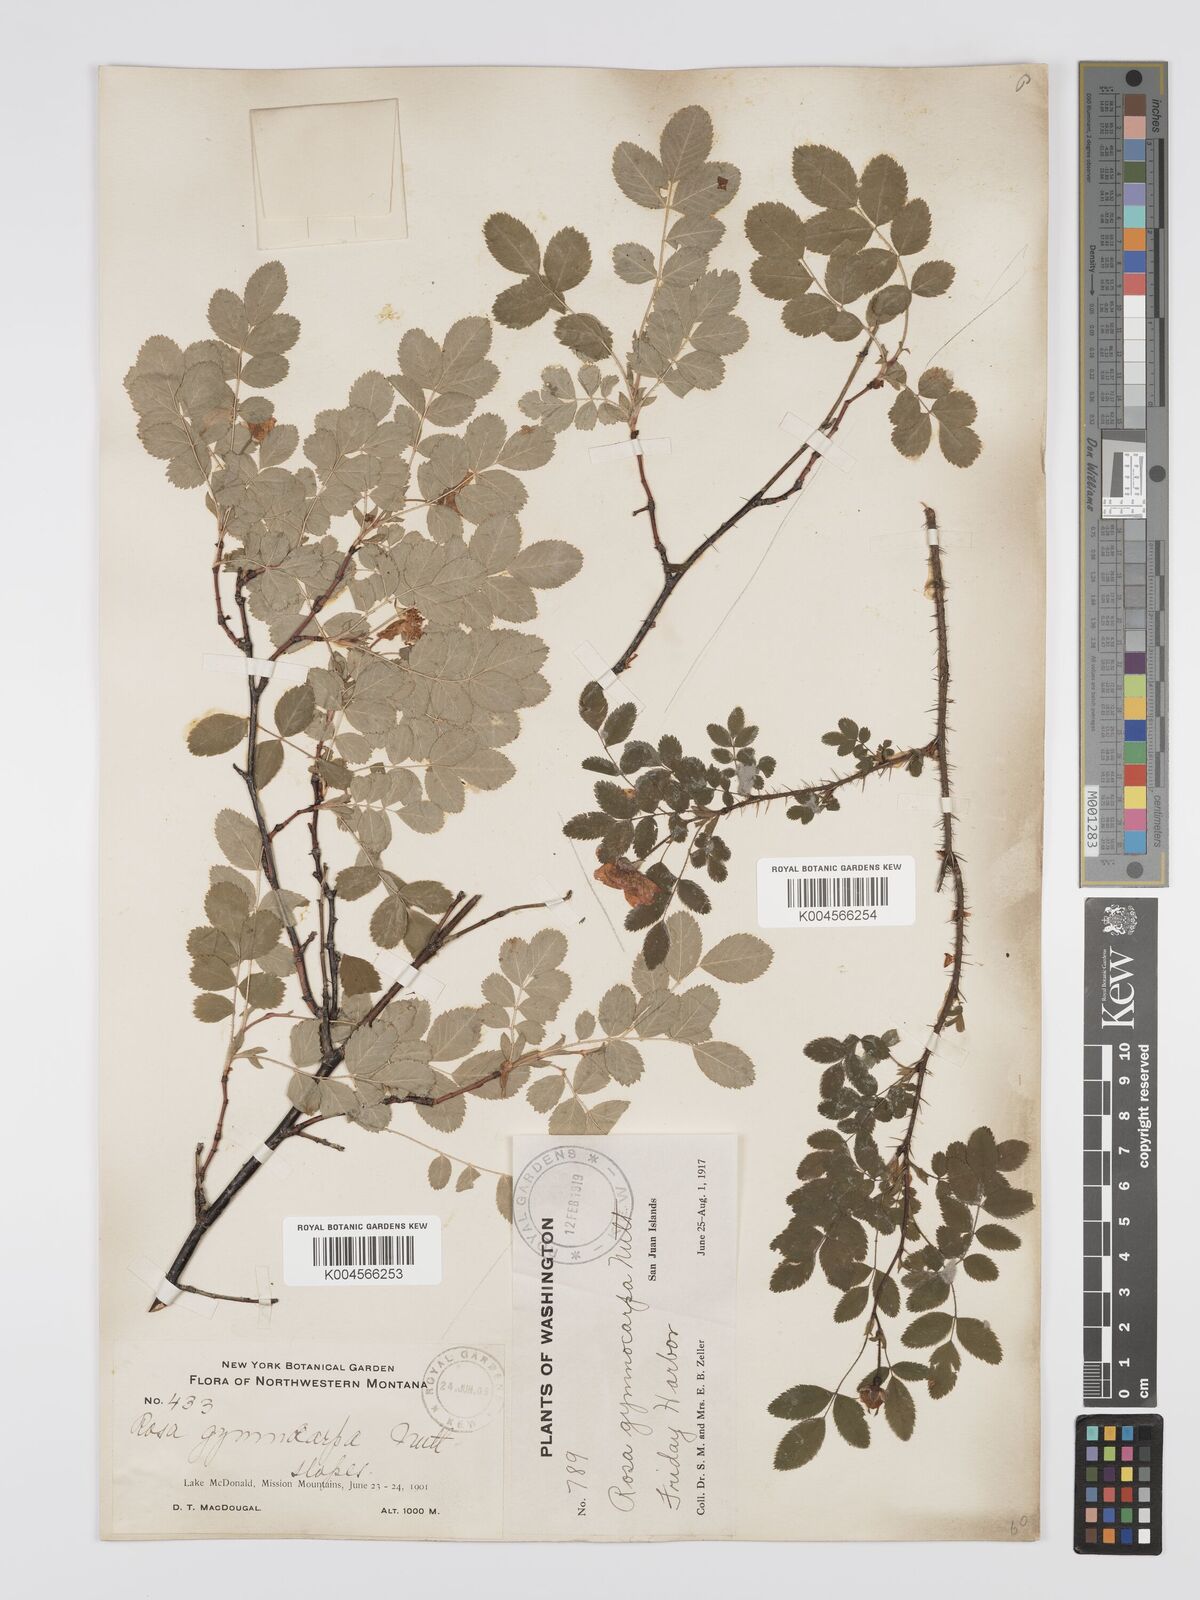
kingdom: Plantae
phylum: Tracheophyta
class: Magnoliopsida
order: Rosales
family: Rosaceae
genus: Rosa
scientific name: Rosa gymnocarpa
